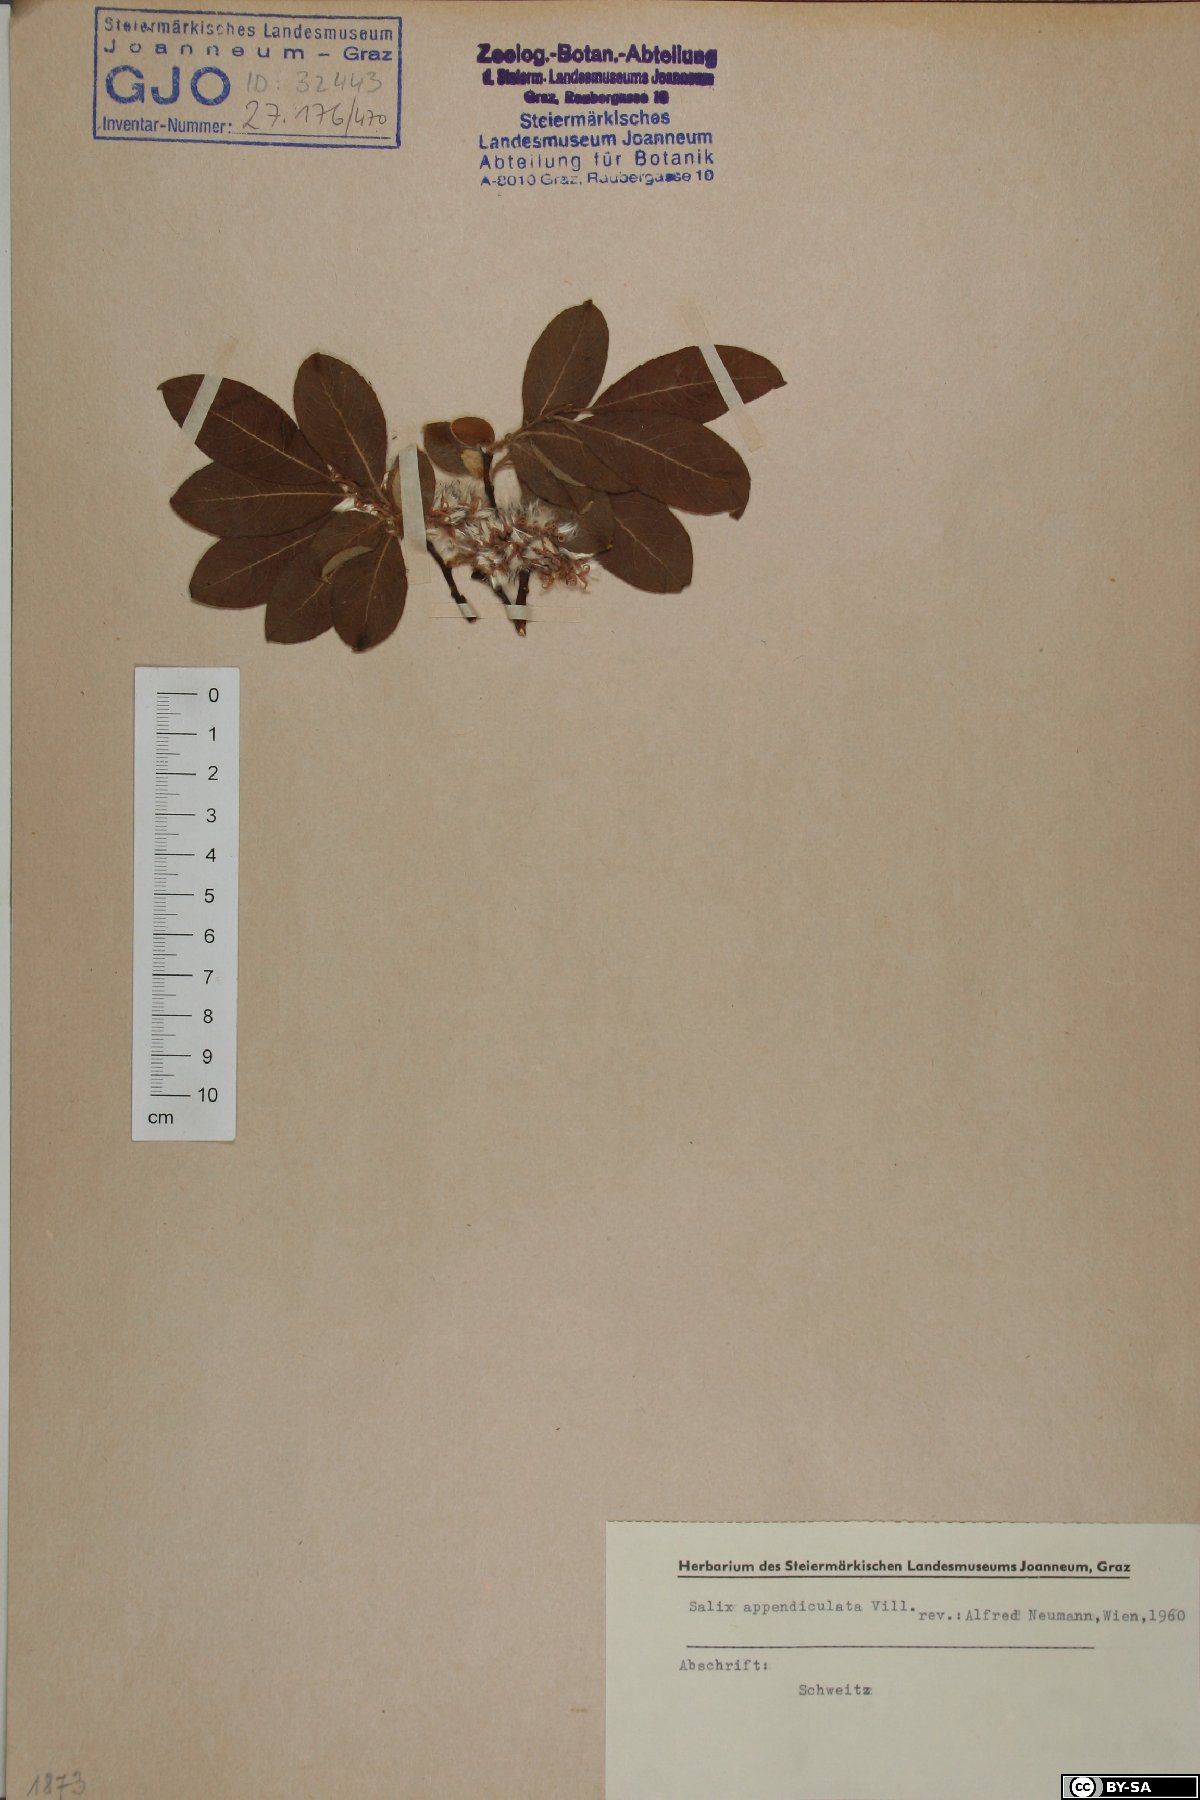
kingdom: Plantae
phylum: Tracheophyta
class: Magnoliopsida
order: Malpighiales
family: Salicaceae
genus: Salix
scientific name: Salix appendiculata
